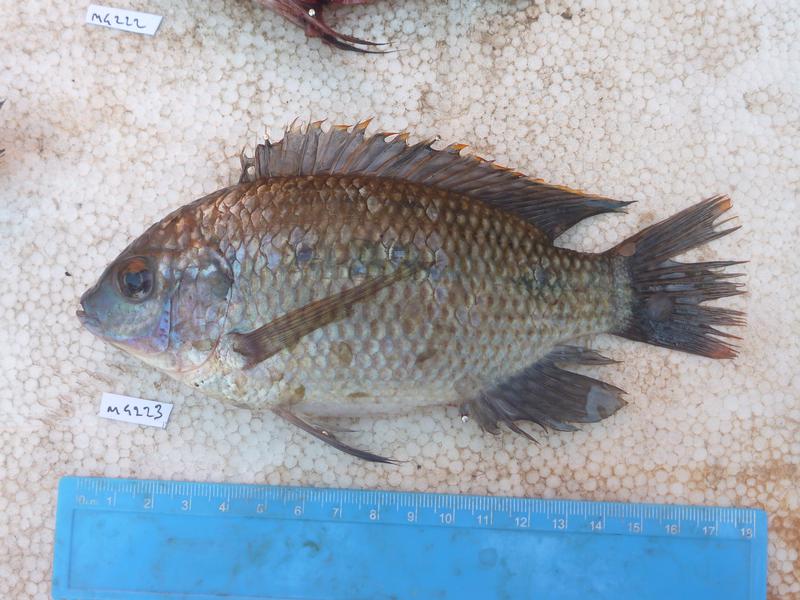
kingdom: Animalia
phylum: Chordata
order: Perciformes
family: Cichlidae
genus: Oreochromis
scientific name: Oreochromis upembae
